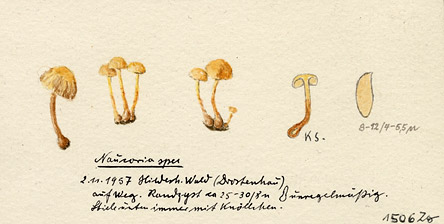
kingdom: Fungi
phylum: Basidiomycota
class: Agaricomycetes
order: Agaricales
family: Hymenogastraceae
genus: Naucoria
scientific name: Naucoria
